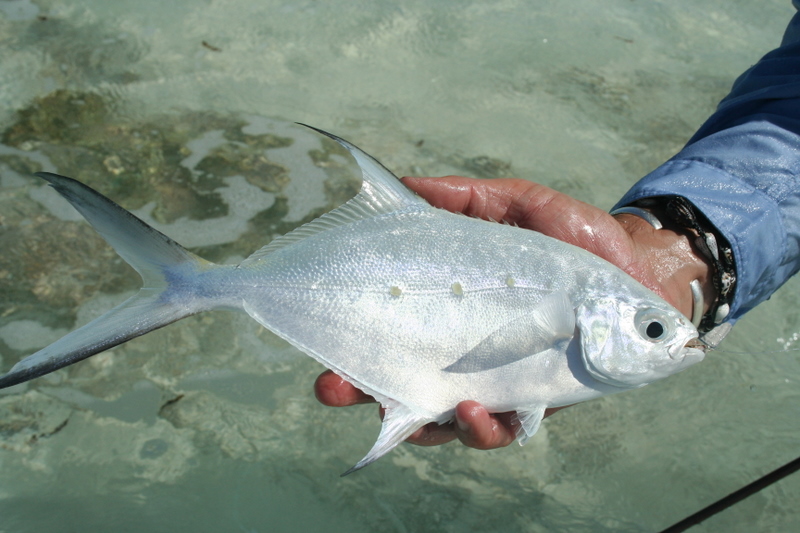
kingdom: Animalia
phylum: Chordata
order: Perciformes
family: Carangidae
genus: Trachinotus
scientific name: Trachinotus botla
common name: Common dart
